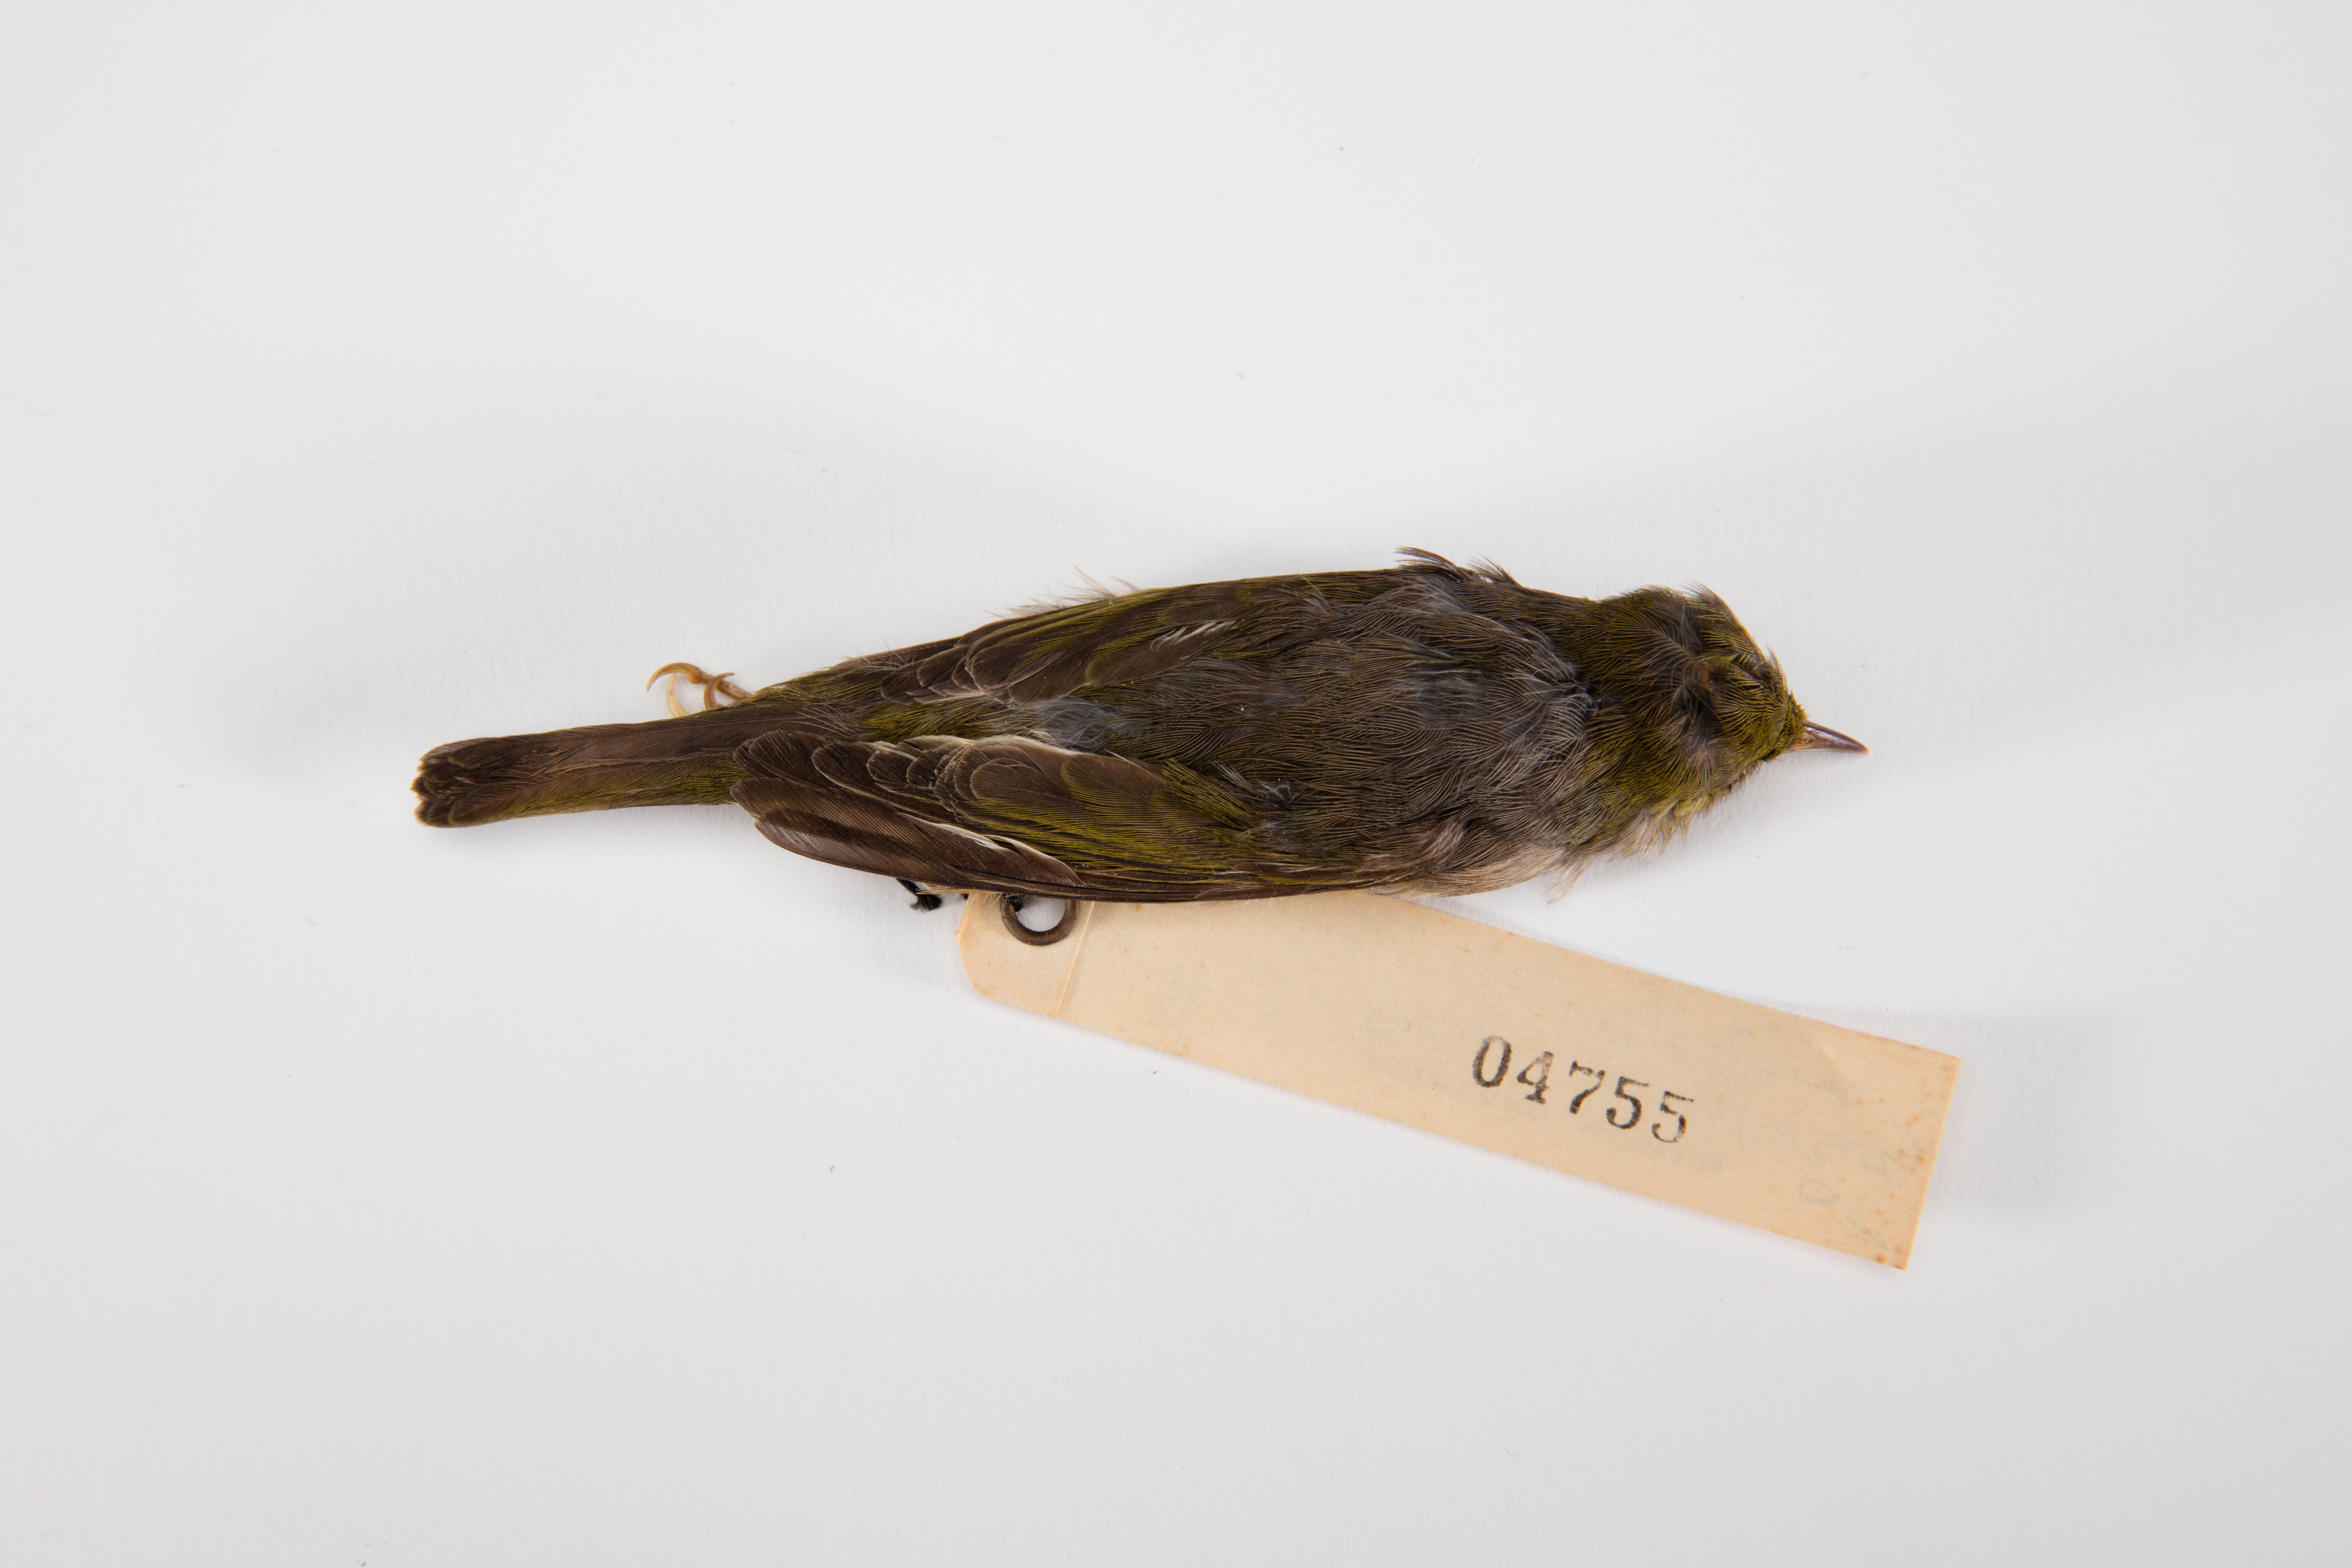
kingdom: Animalia
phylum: Chordata
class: Aves
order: Passeriformes
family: Zosteropidae
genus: Zosterops
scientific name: Zosterops lateralis
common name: Silvereye
